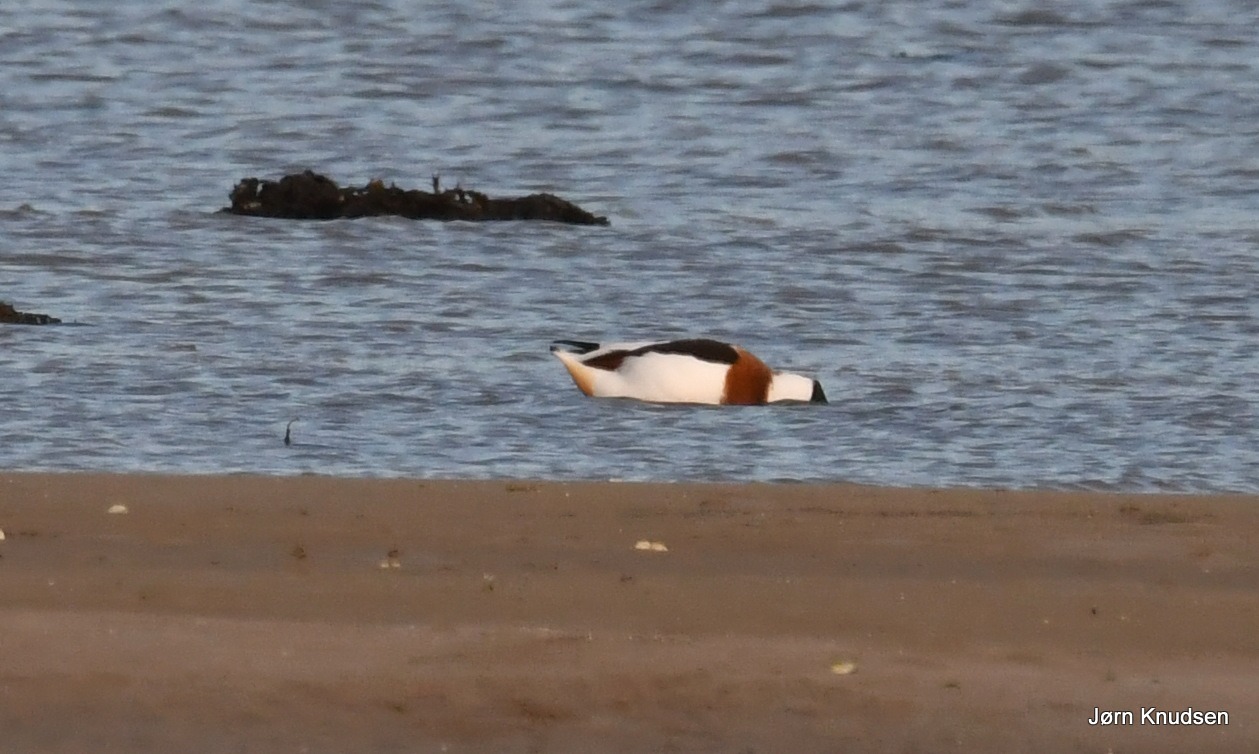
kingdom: Animalia
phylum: Chordata
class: Aves
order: Anseriformes
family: Anatidae
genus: Tadorna
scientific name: Tadorna tadorna
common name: Gravand
